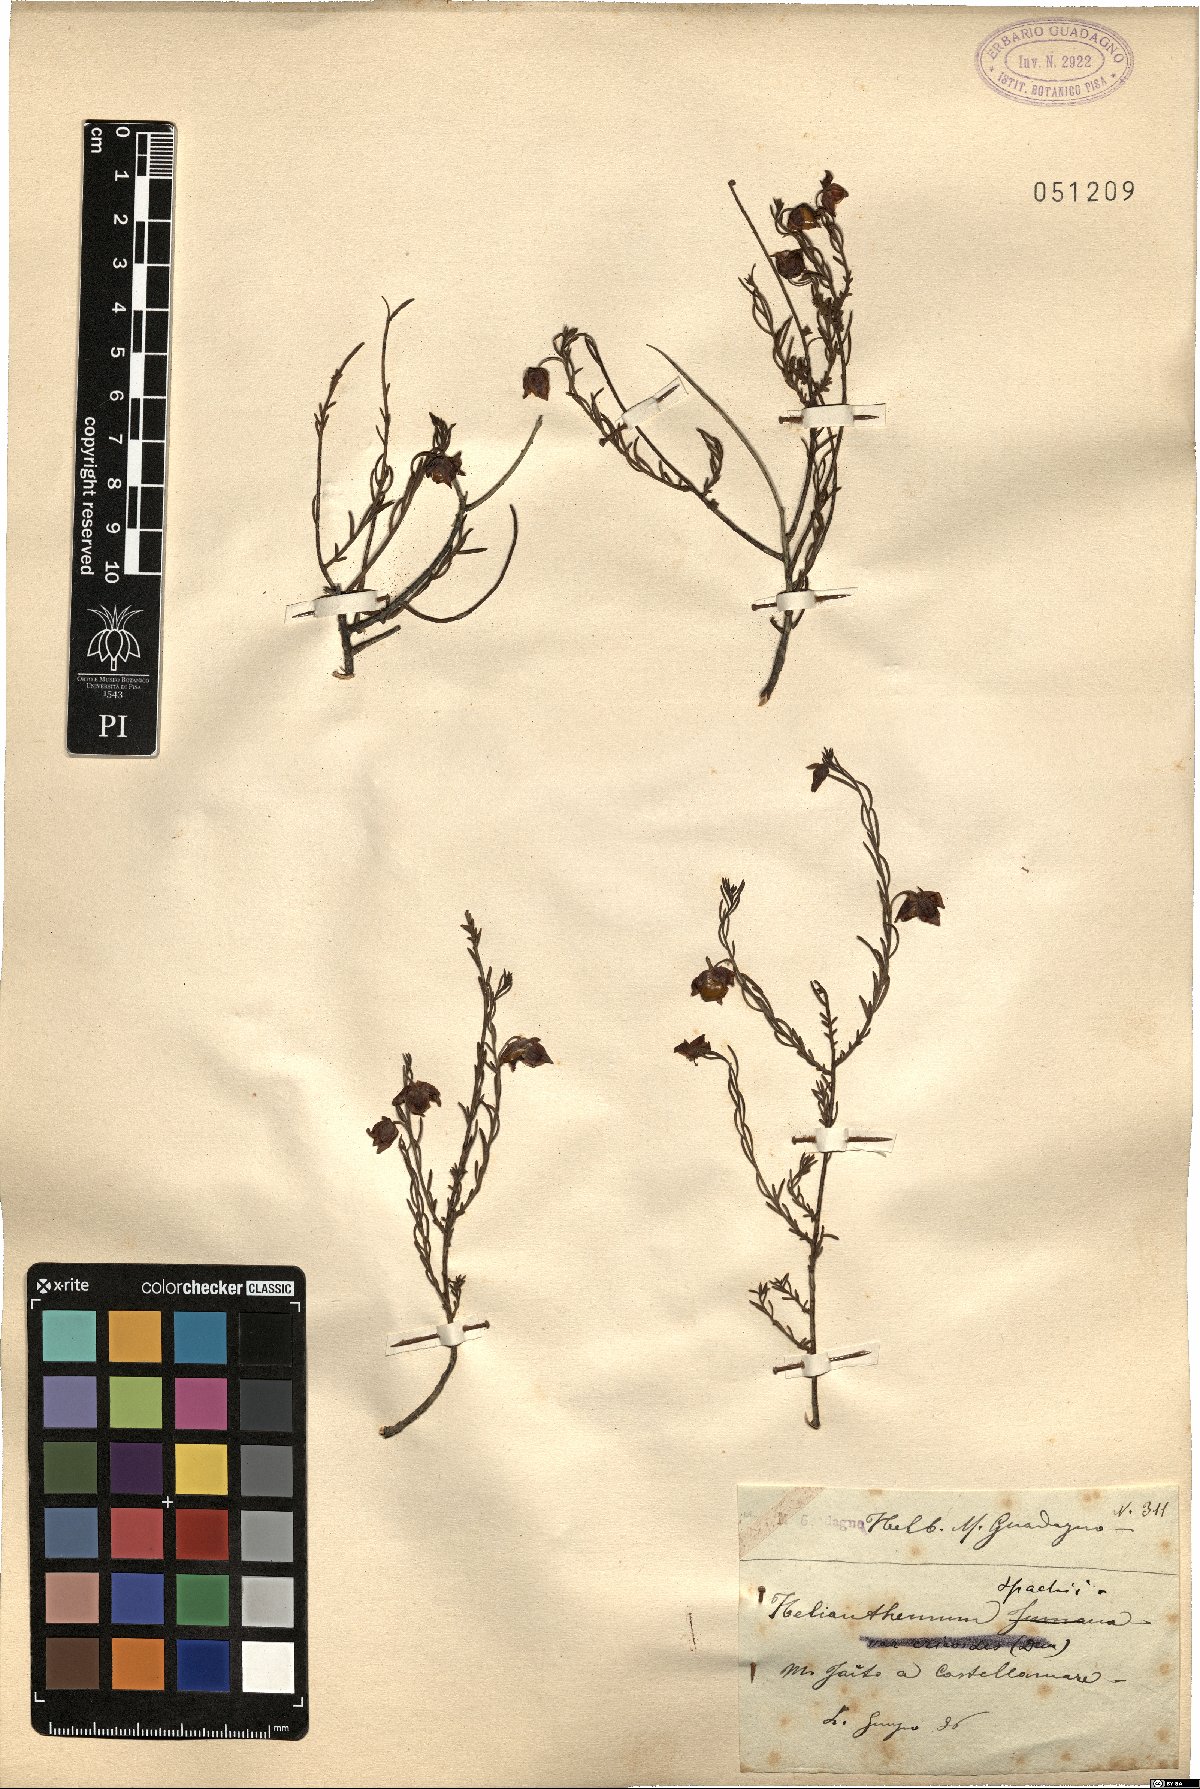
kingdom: Plantae
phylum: Tracheophyta
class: Magnoliopsida
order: Malvales
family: Cistaceae
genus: Fumana
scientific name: Fumana ericifolia
